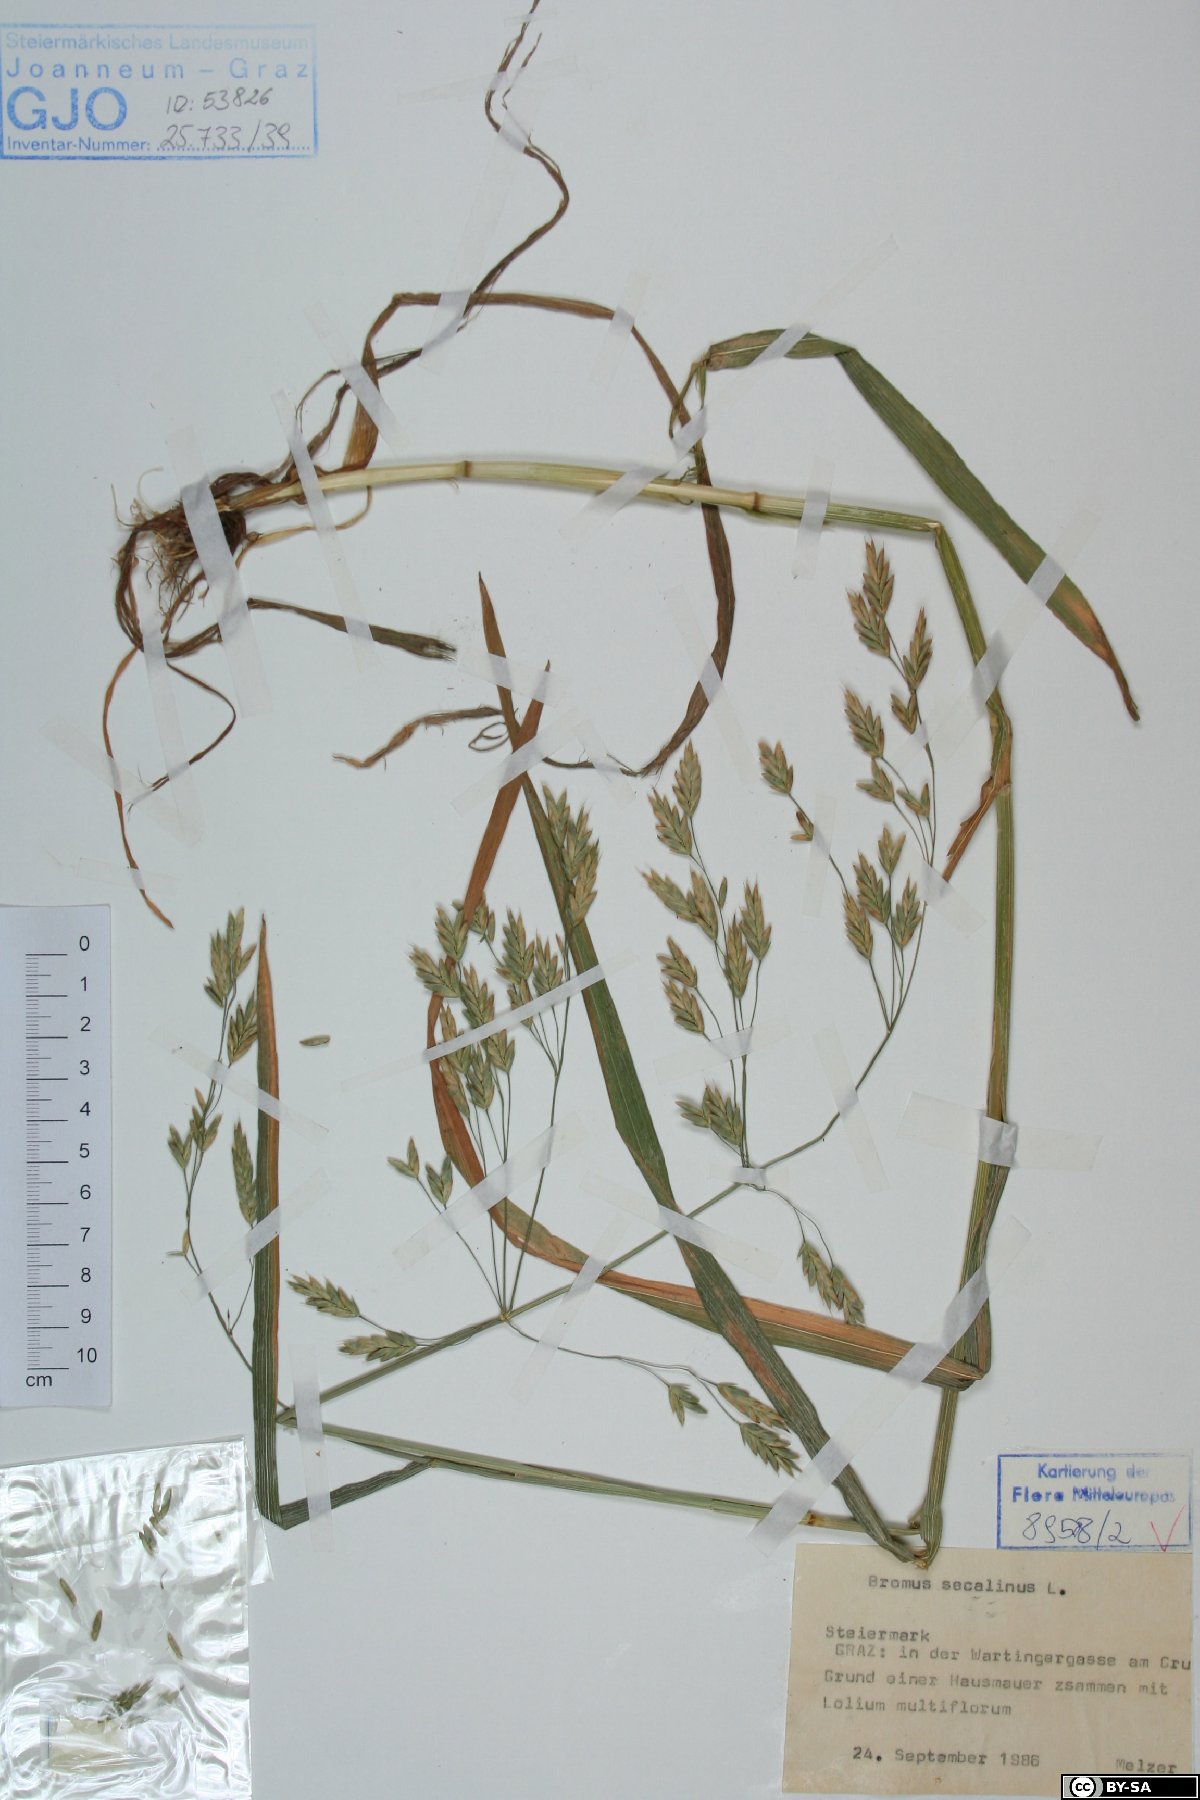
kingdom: Plantae
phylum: Tracheophyta
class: Liliopsida
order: Poales
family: Poaceae
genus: Bromus
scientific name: Bromus secalinus
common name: Rye brome
